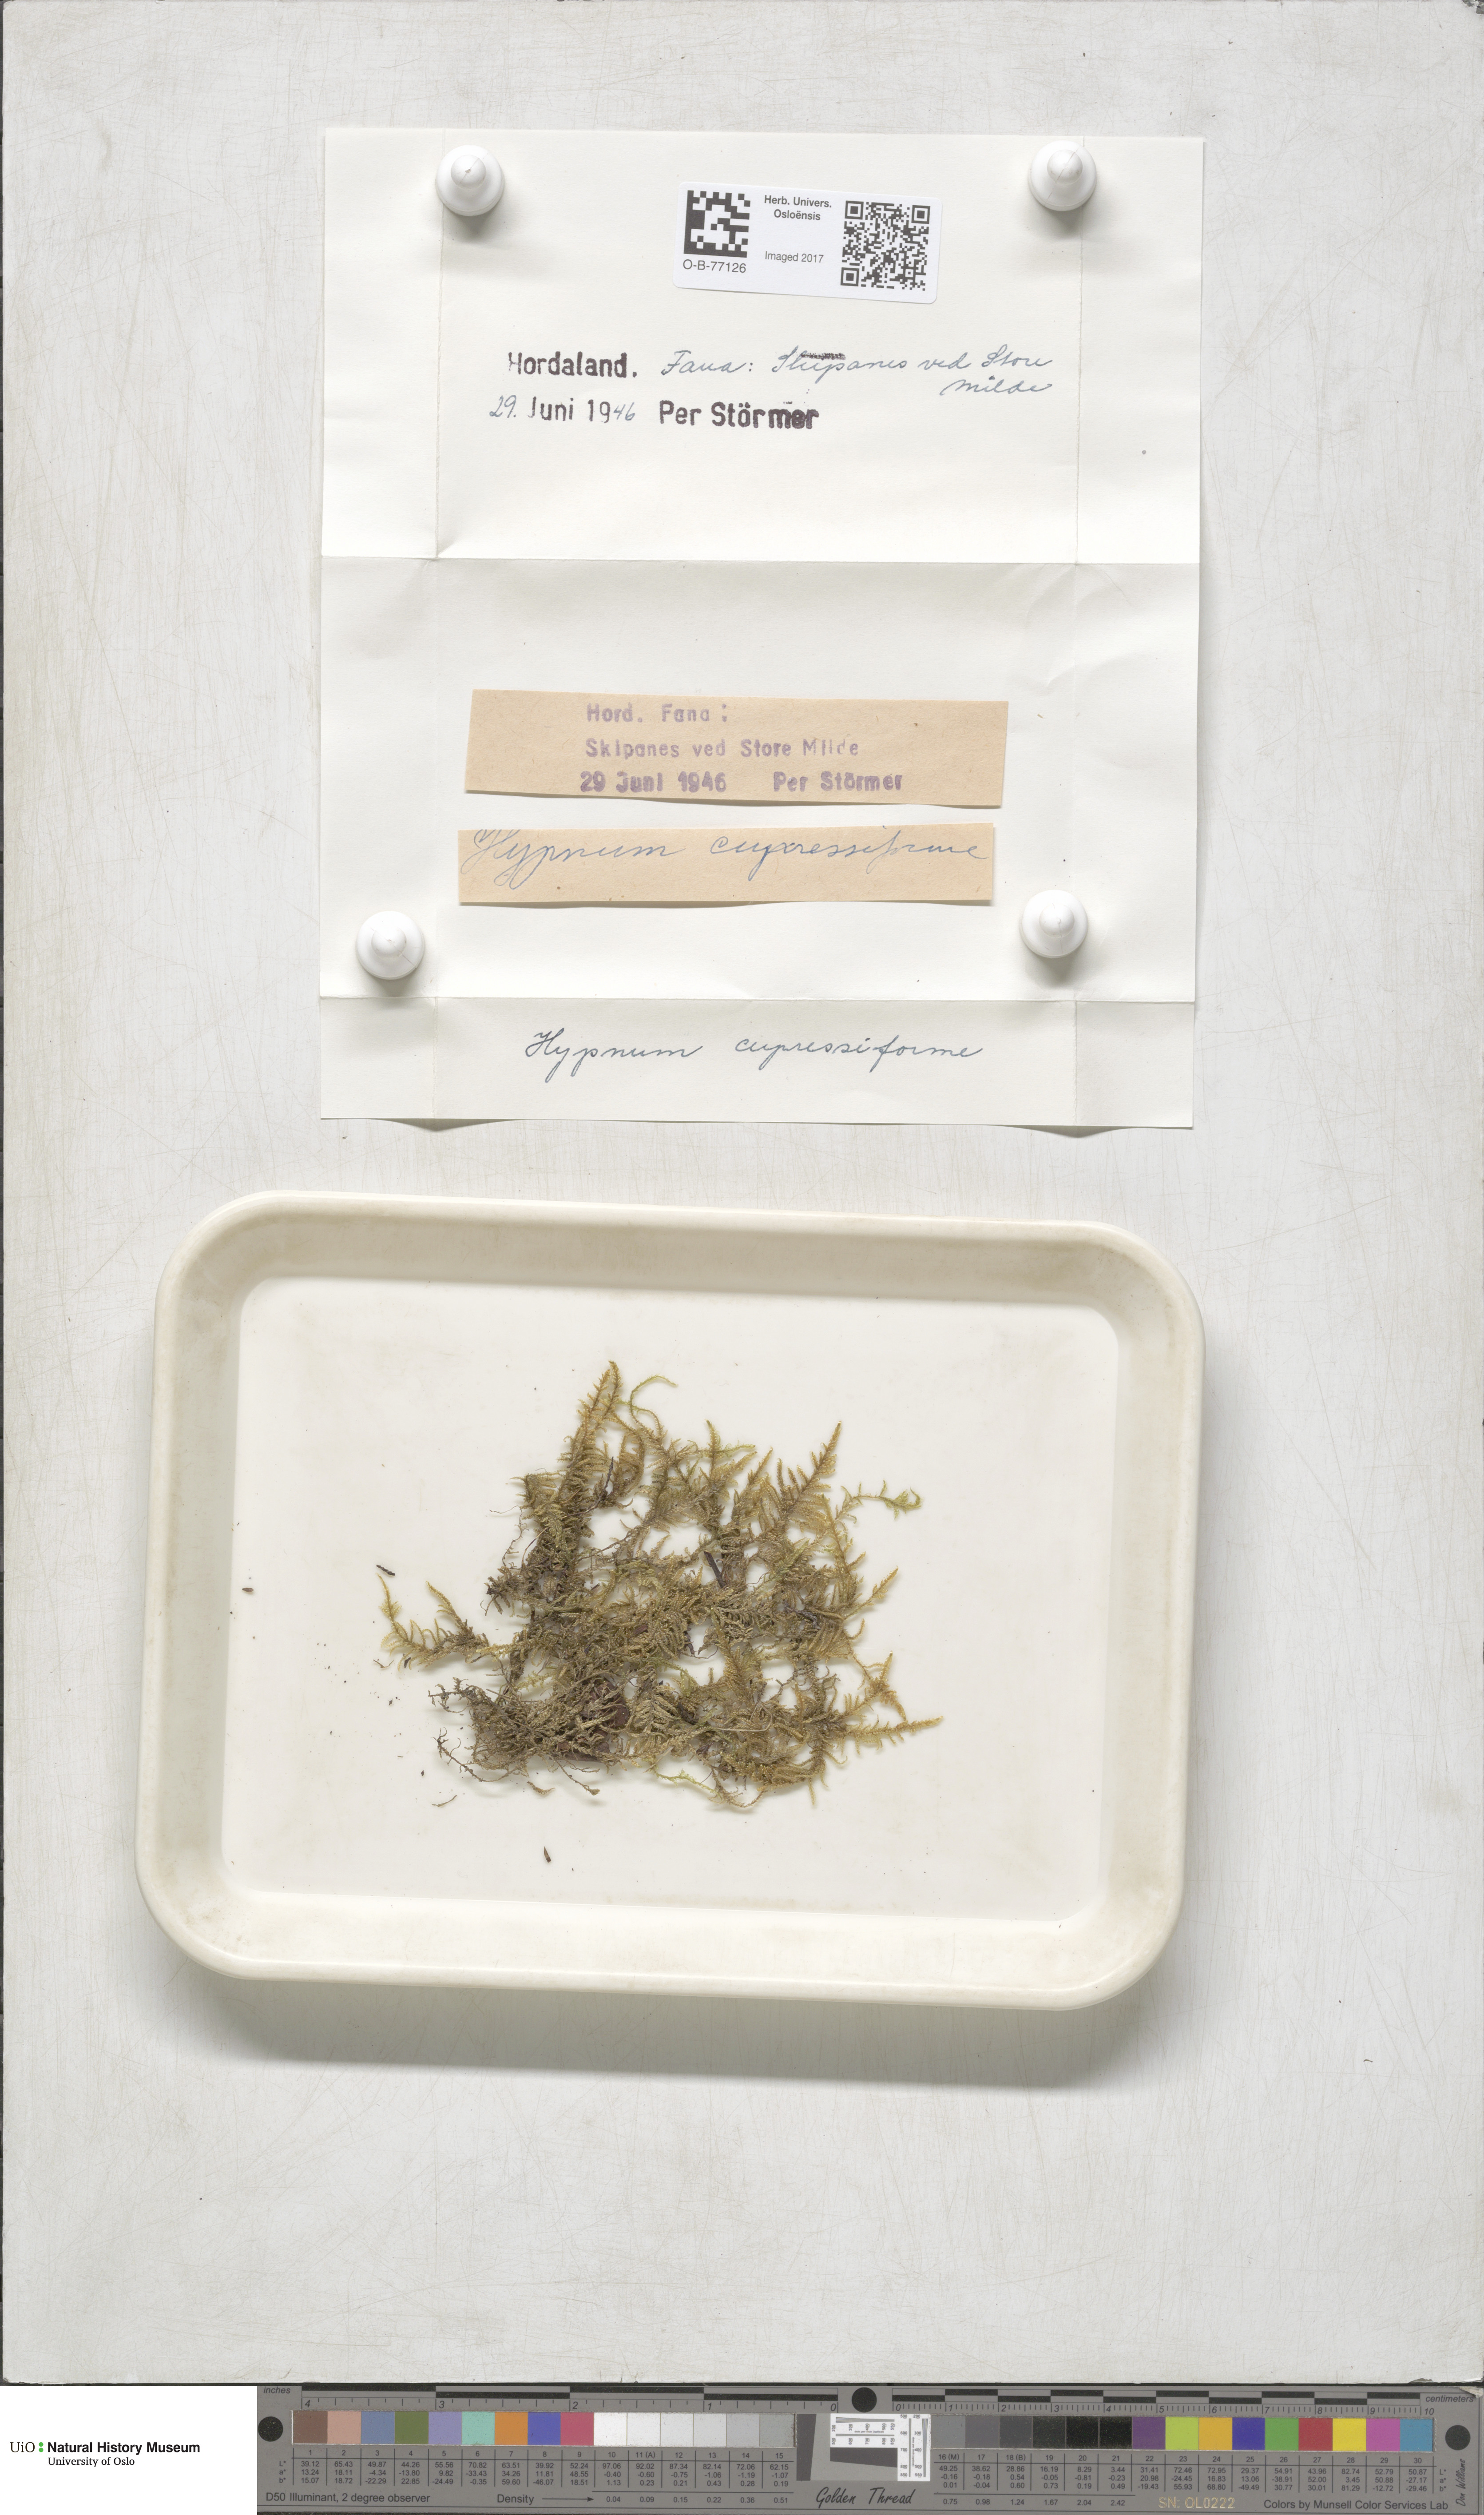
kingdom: Plantae
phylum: Bryophyta
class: Bryopsida
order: Hypnales
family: Hypnaceae
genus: Hypnum
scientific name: Hypnum cupressiforme
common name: Cypress-leaved plait-moss
